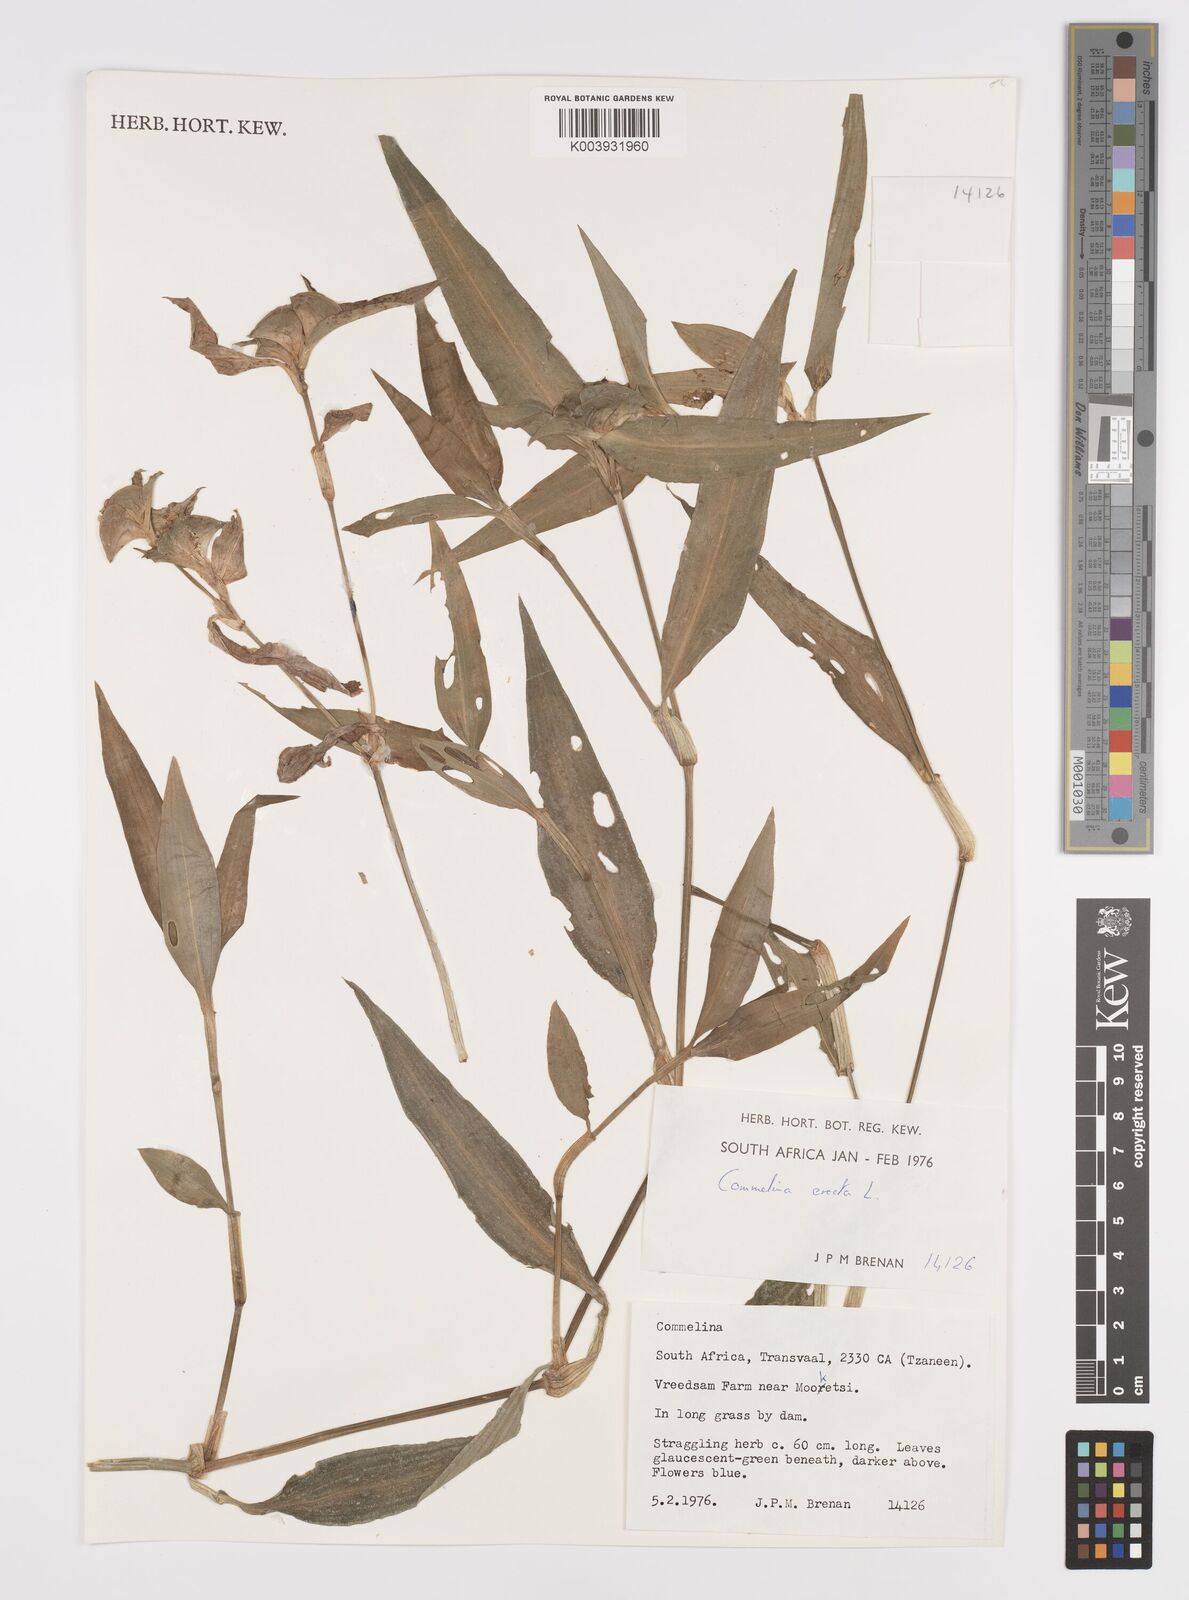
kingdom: Plantae
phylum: Tracheophyta
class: Liliopsida
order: Commelinales
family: Commelinaceae
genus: Commelina
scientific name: Commelina erecta
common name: Blousel blommetjie
